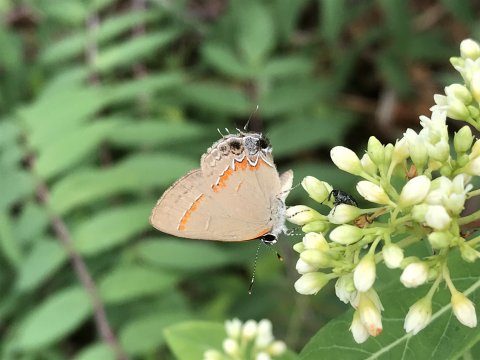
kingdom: Animalia
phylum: Arthropoda
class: Insecta
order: Lepidoptera
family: Lycaenidae
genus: Calycopis
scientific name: Calycopis cecrops
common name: Red-banded Hairstreak
